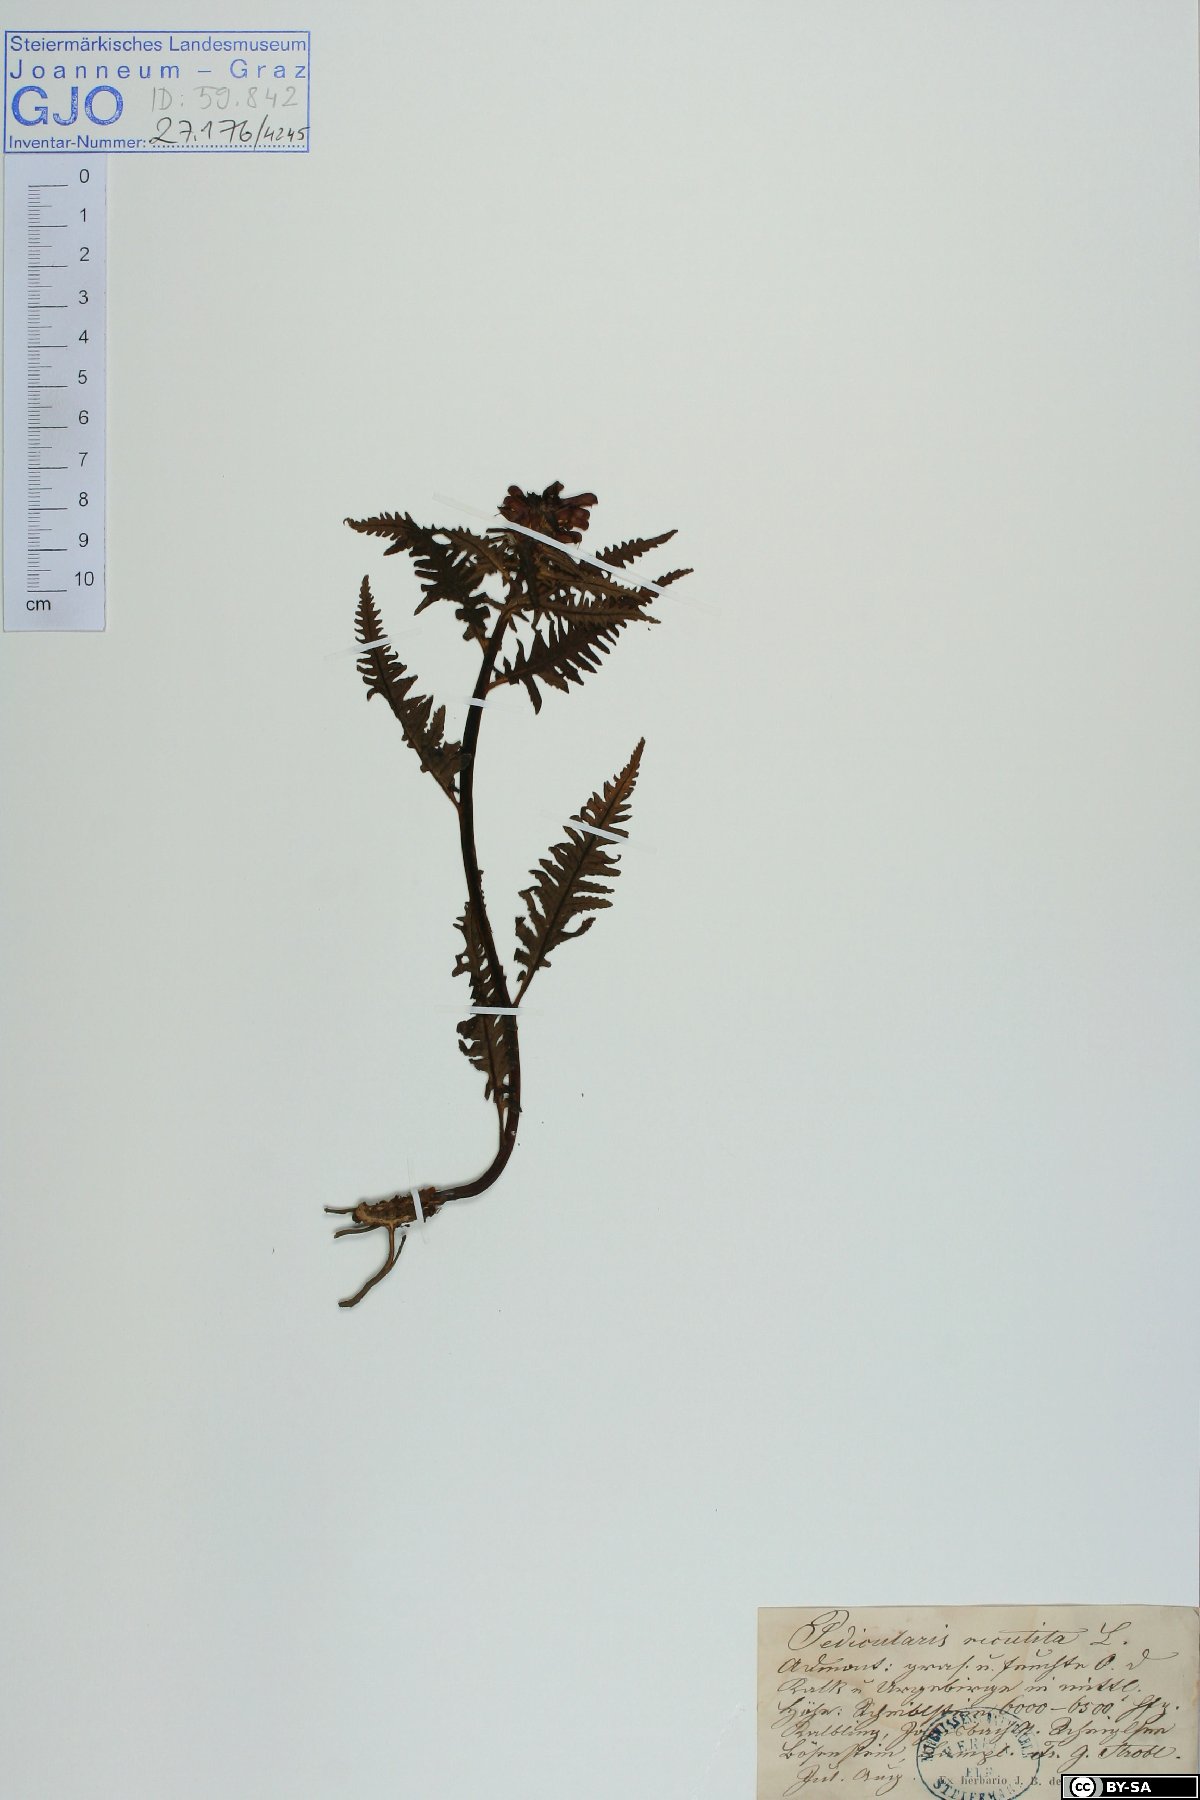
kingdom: Plantae
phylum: Tracheophyta
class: Magnoliopsida
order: Lamiales
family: Orobanchaceae
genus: Pedicularis
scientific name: Pedicularis recutita
